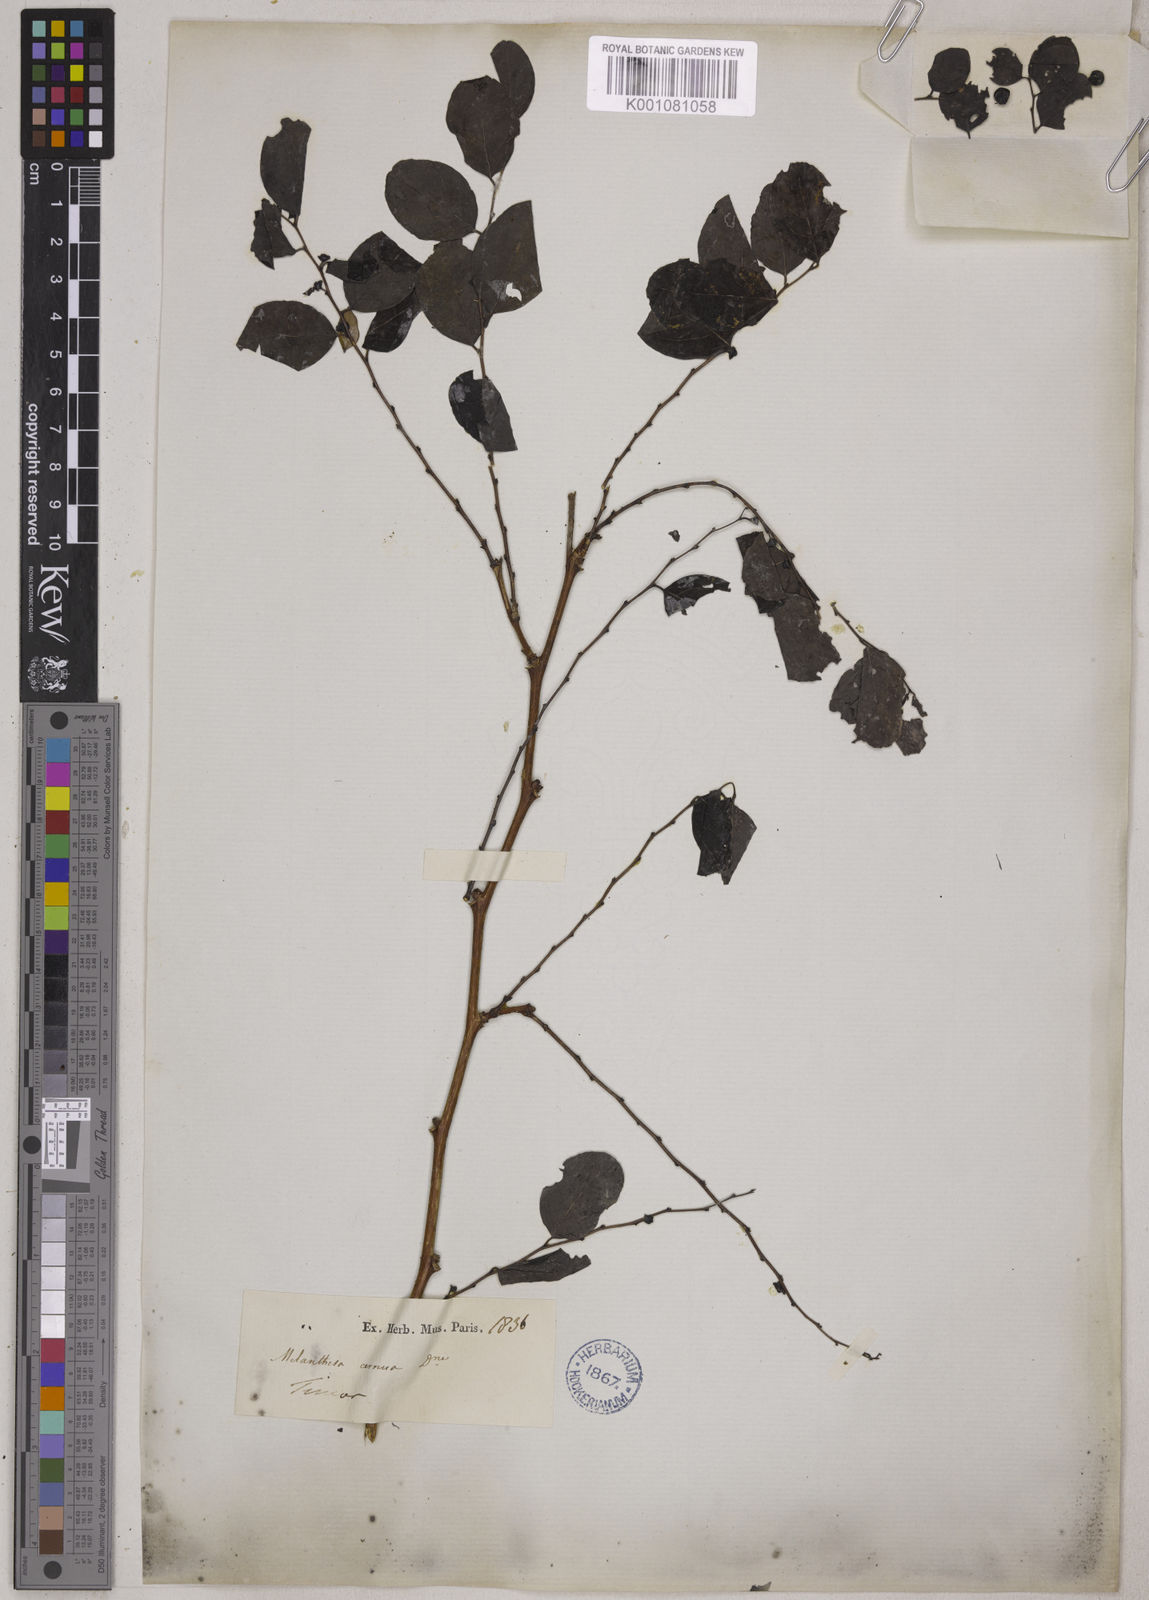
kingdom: Plantae
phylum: Tracheophyta
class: Magnoliopsida
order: Malpighiales
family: Phyllanthaceae
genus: Breynia
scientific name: Breynia
